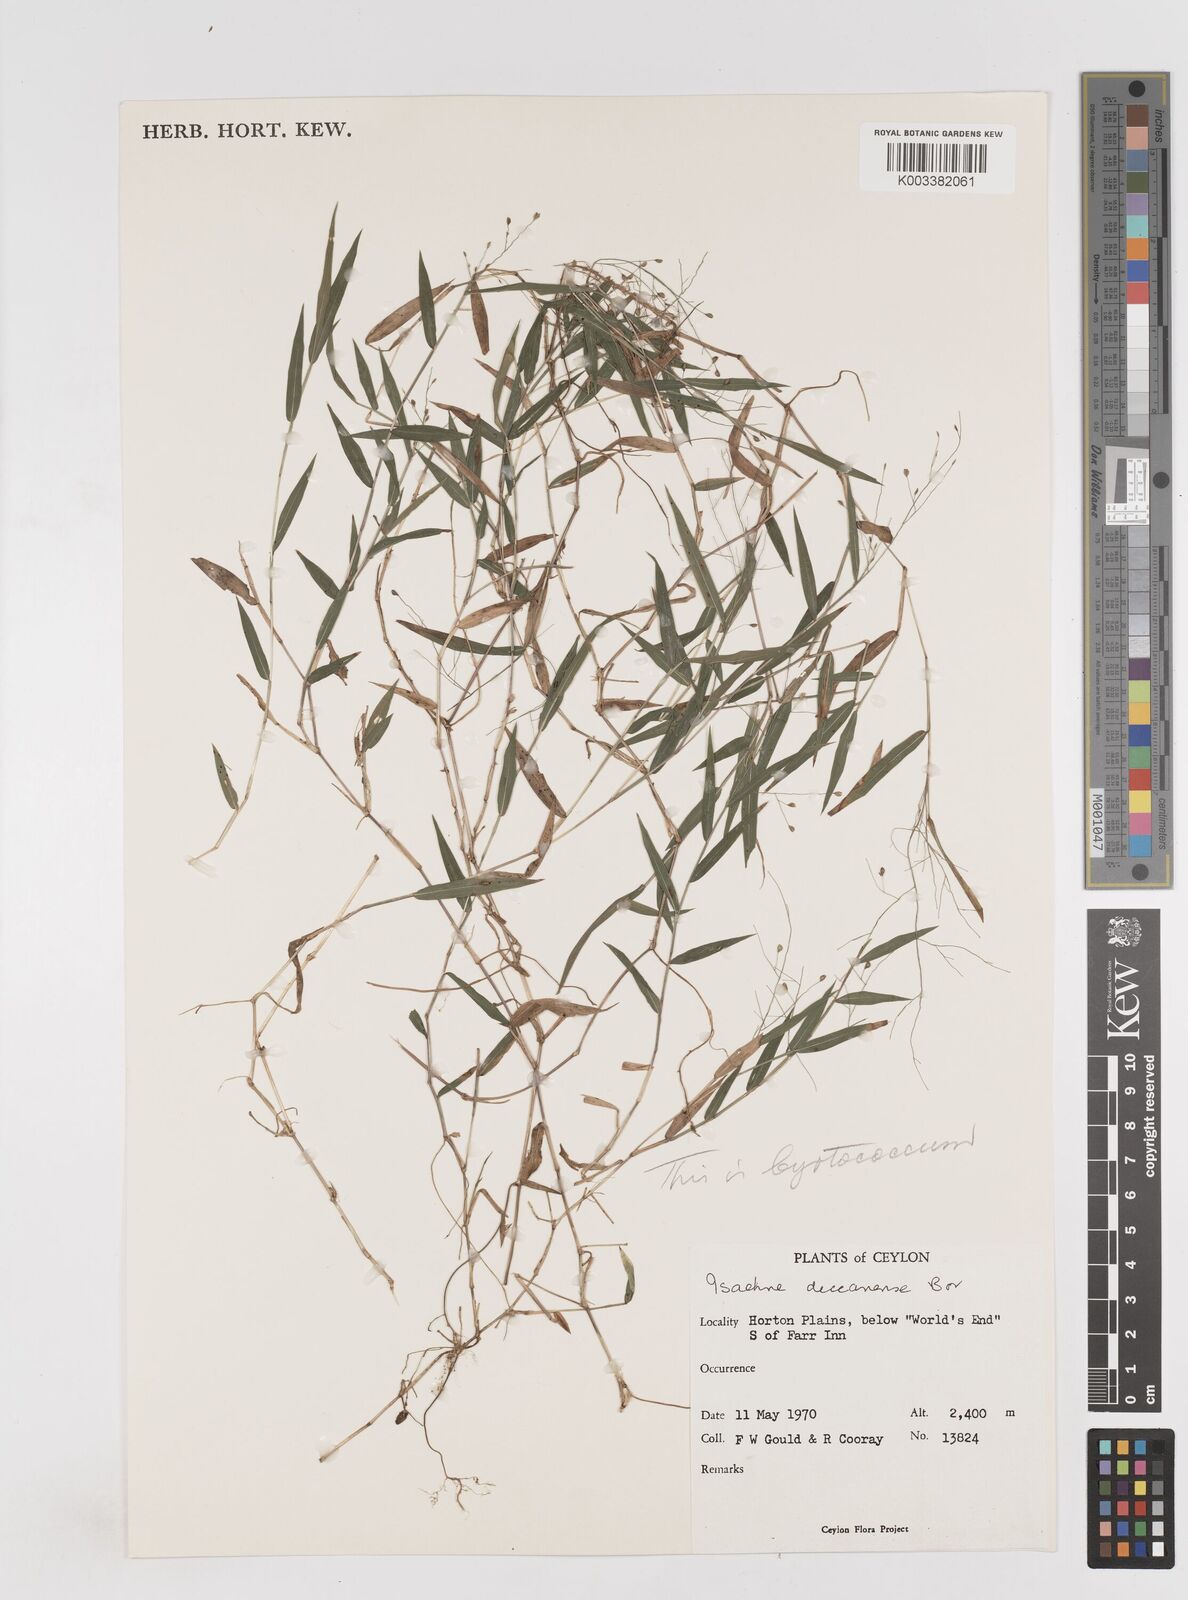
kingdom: Plantae
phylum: Tracheophyta
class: Liliopsida
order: Poales
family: Poaceae
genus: Cyrtococcum
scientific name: Cyrtococcum deccanense
